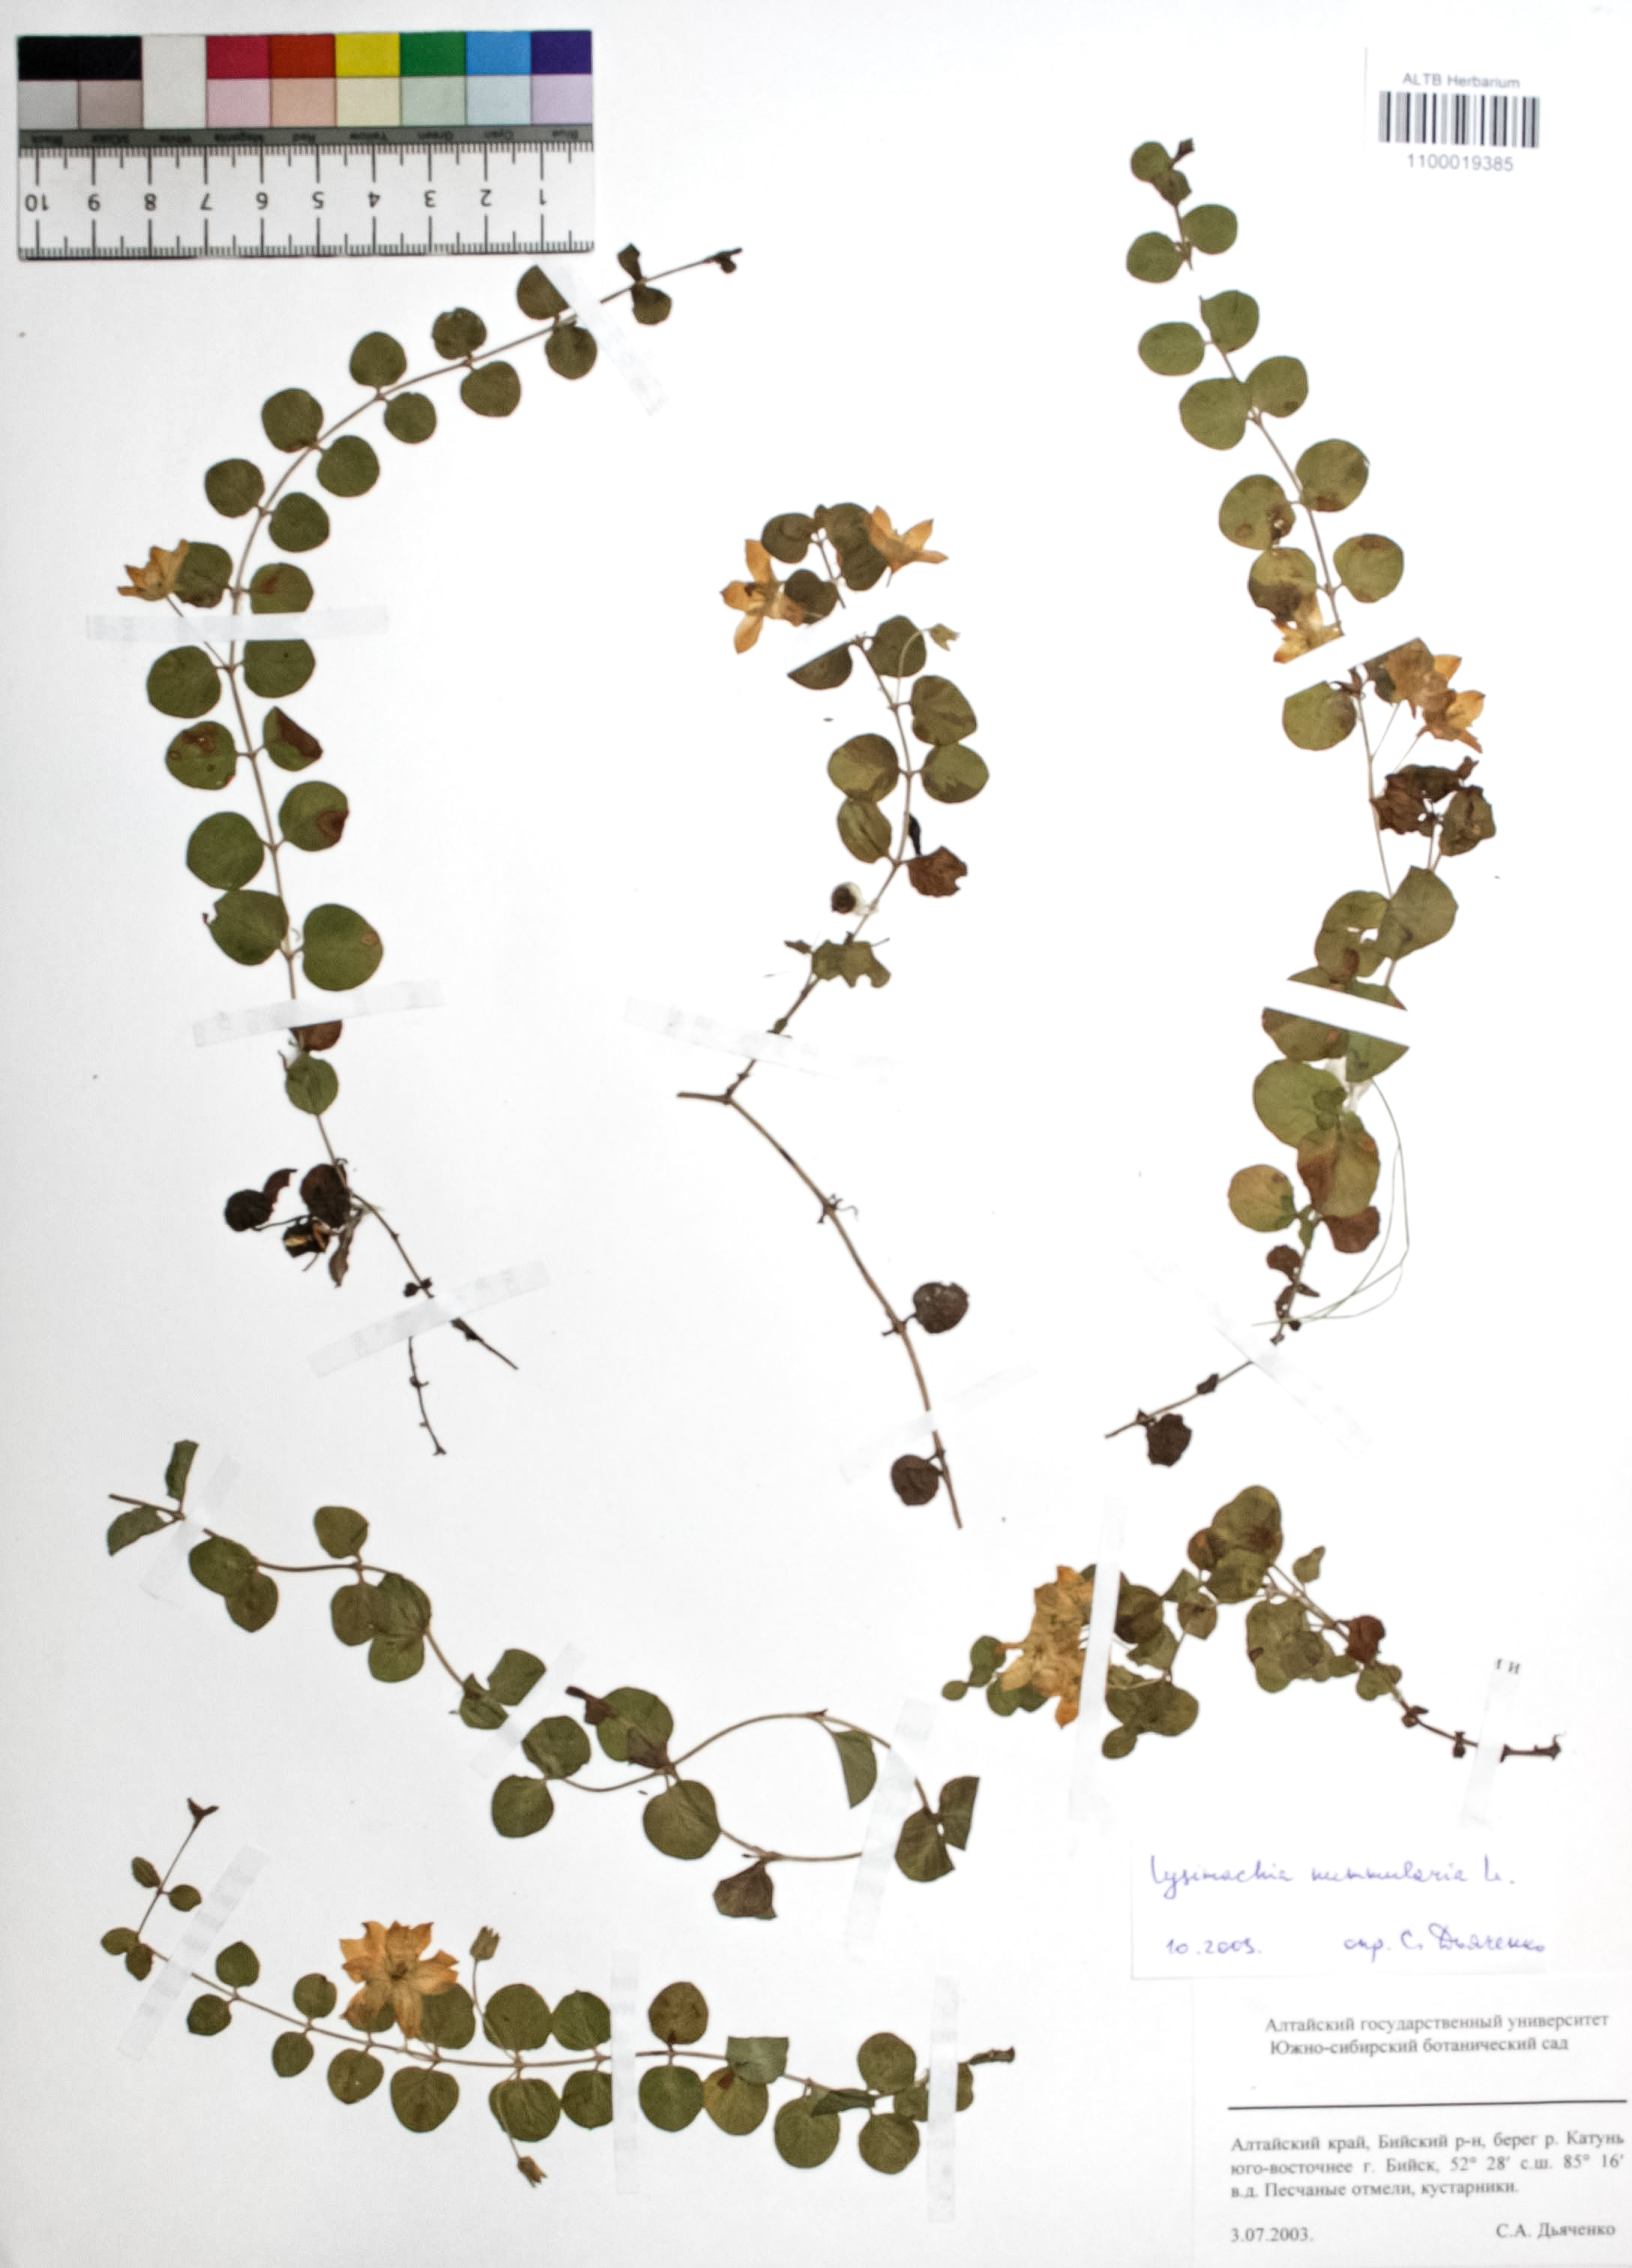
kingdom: Plantae
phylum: Tracheophyta
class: Magnoliopsida
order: Ericales
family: Primulaceae
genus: Lysimachia
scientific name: Lysimachia nummularia
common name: Moneywort
